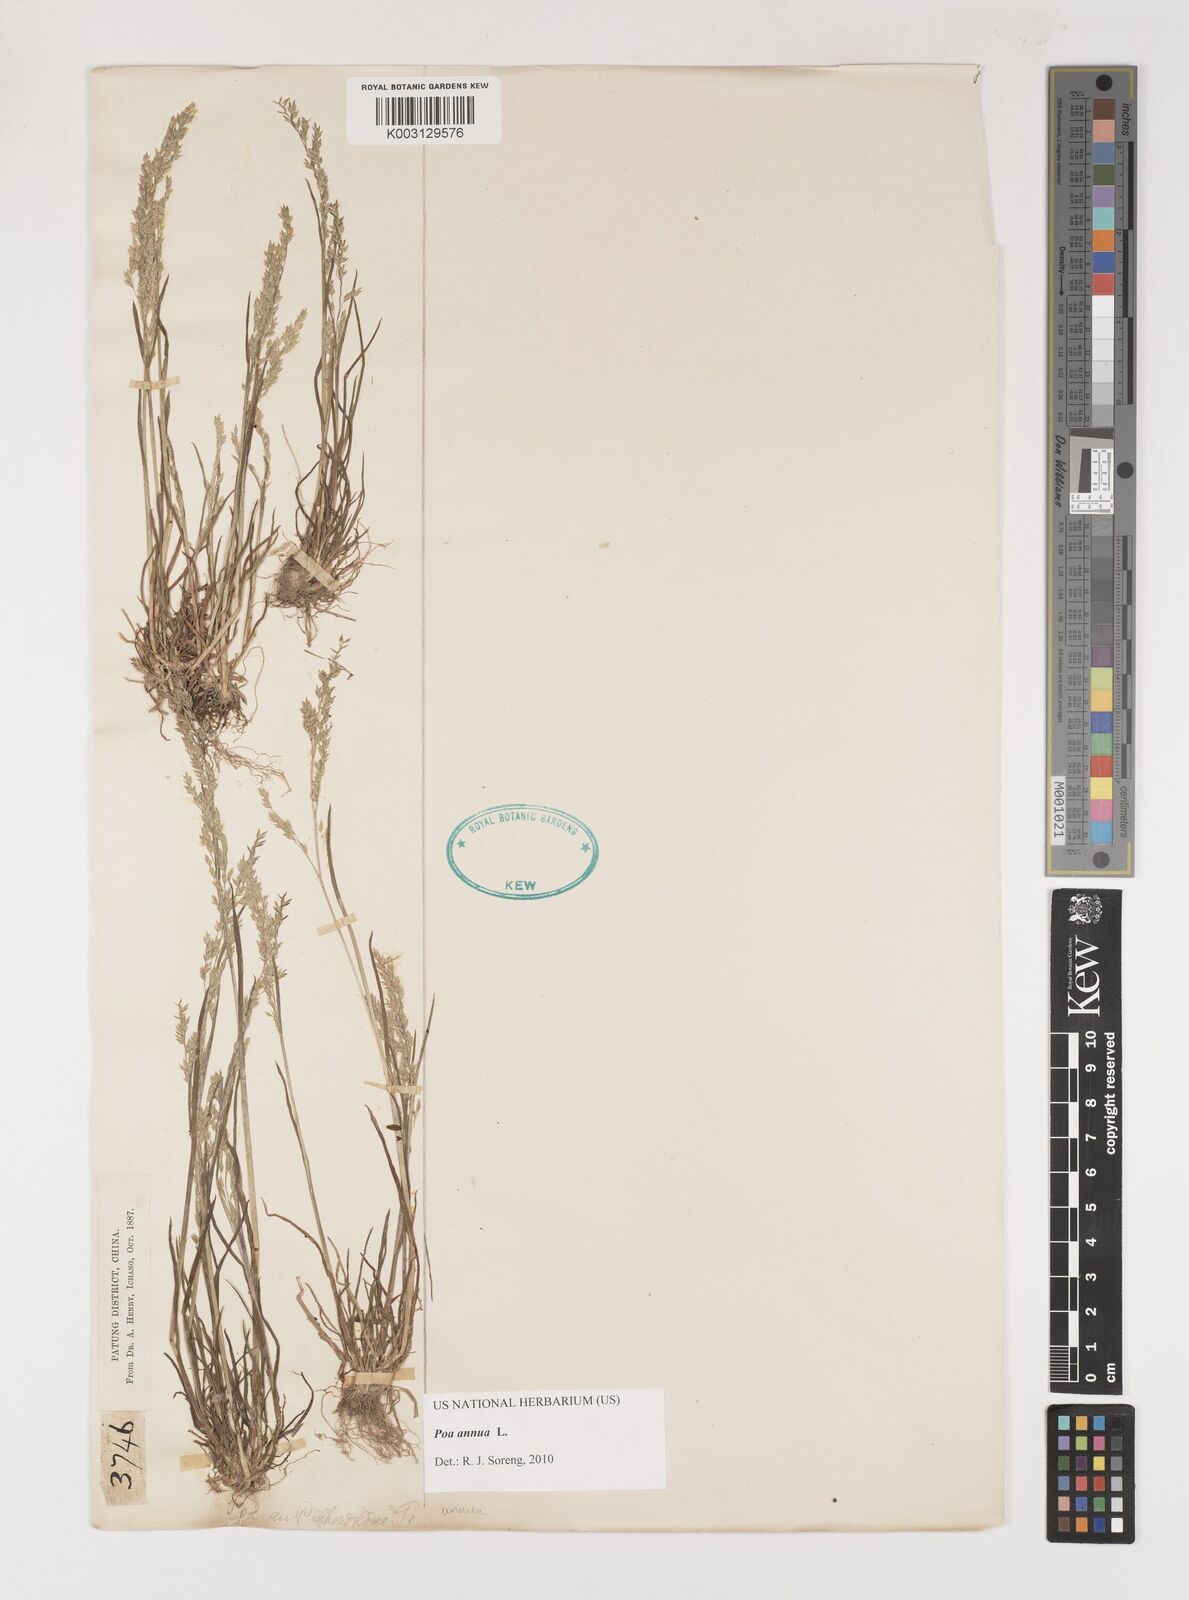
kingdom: Plantae
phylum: Tracheophyta
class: Liliopsida
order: Poales
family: Poaceae
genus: Poa
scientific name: Poa annua
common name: Annual bluegrass
